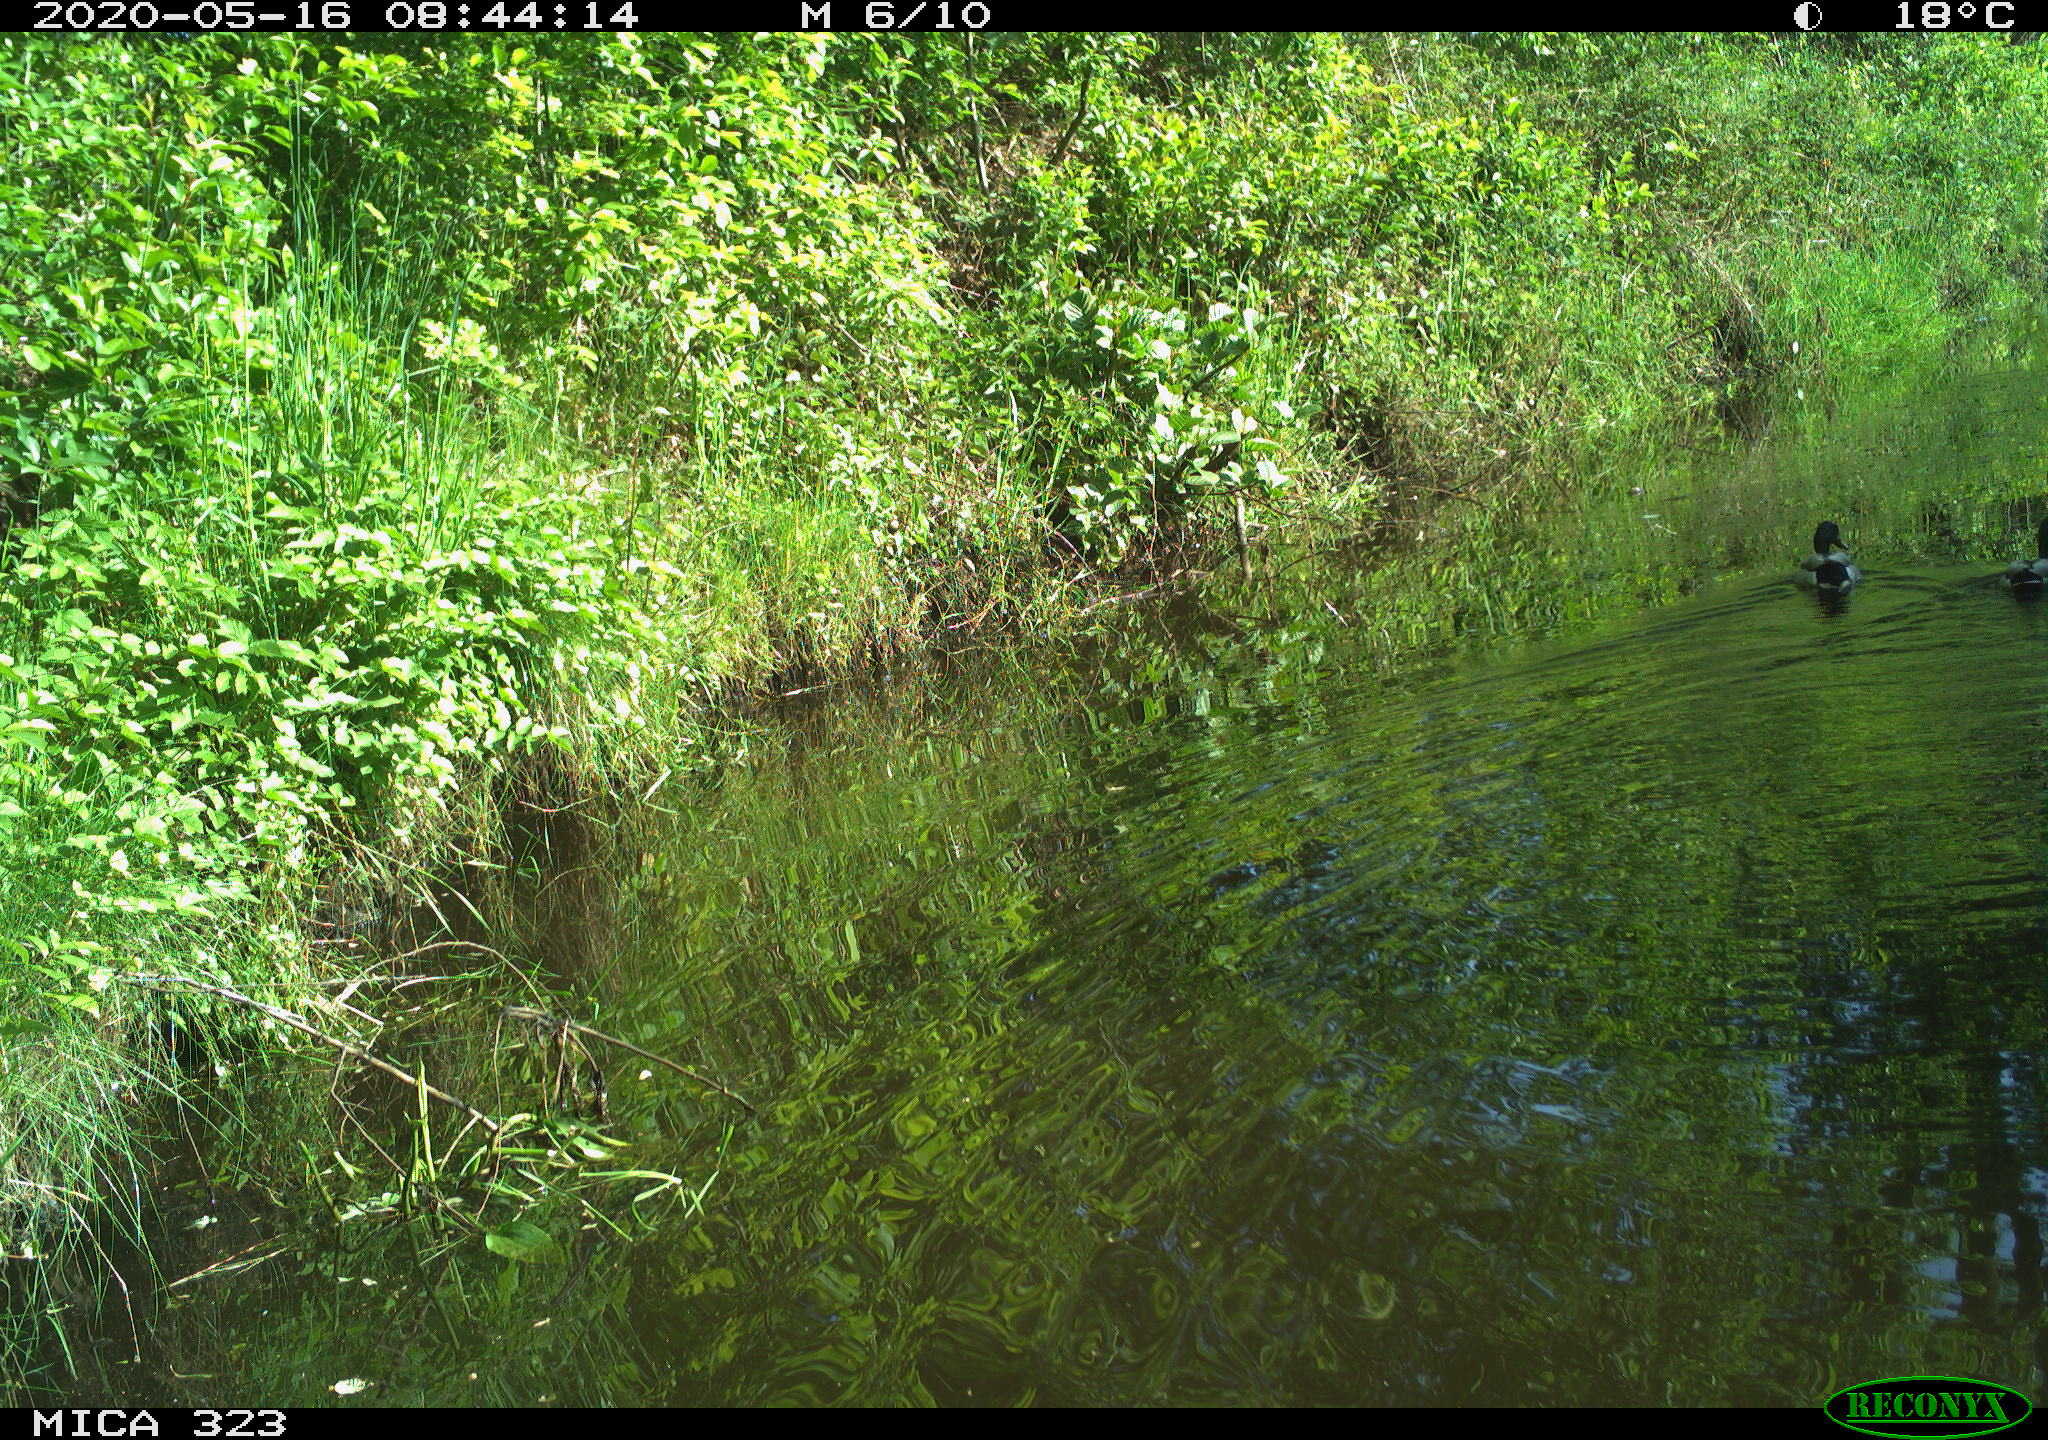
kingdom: Animalia
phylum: Chordata
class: Aves
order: Anseriformes
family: Anatidae
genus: Anas
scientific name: Anas platyrhynchos
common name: Mallard
